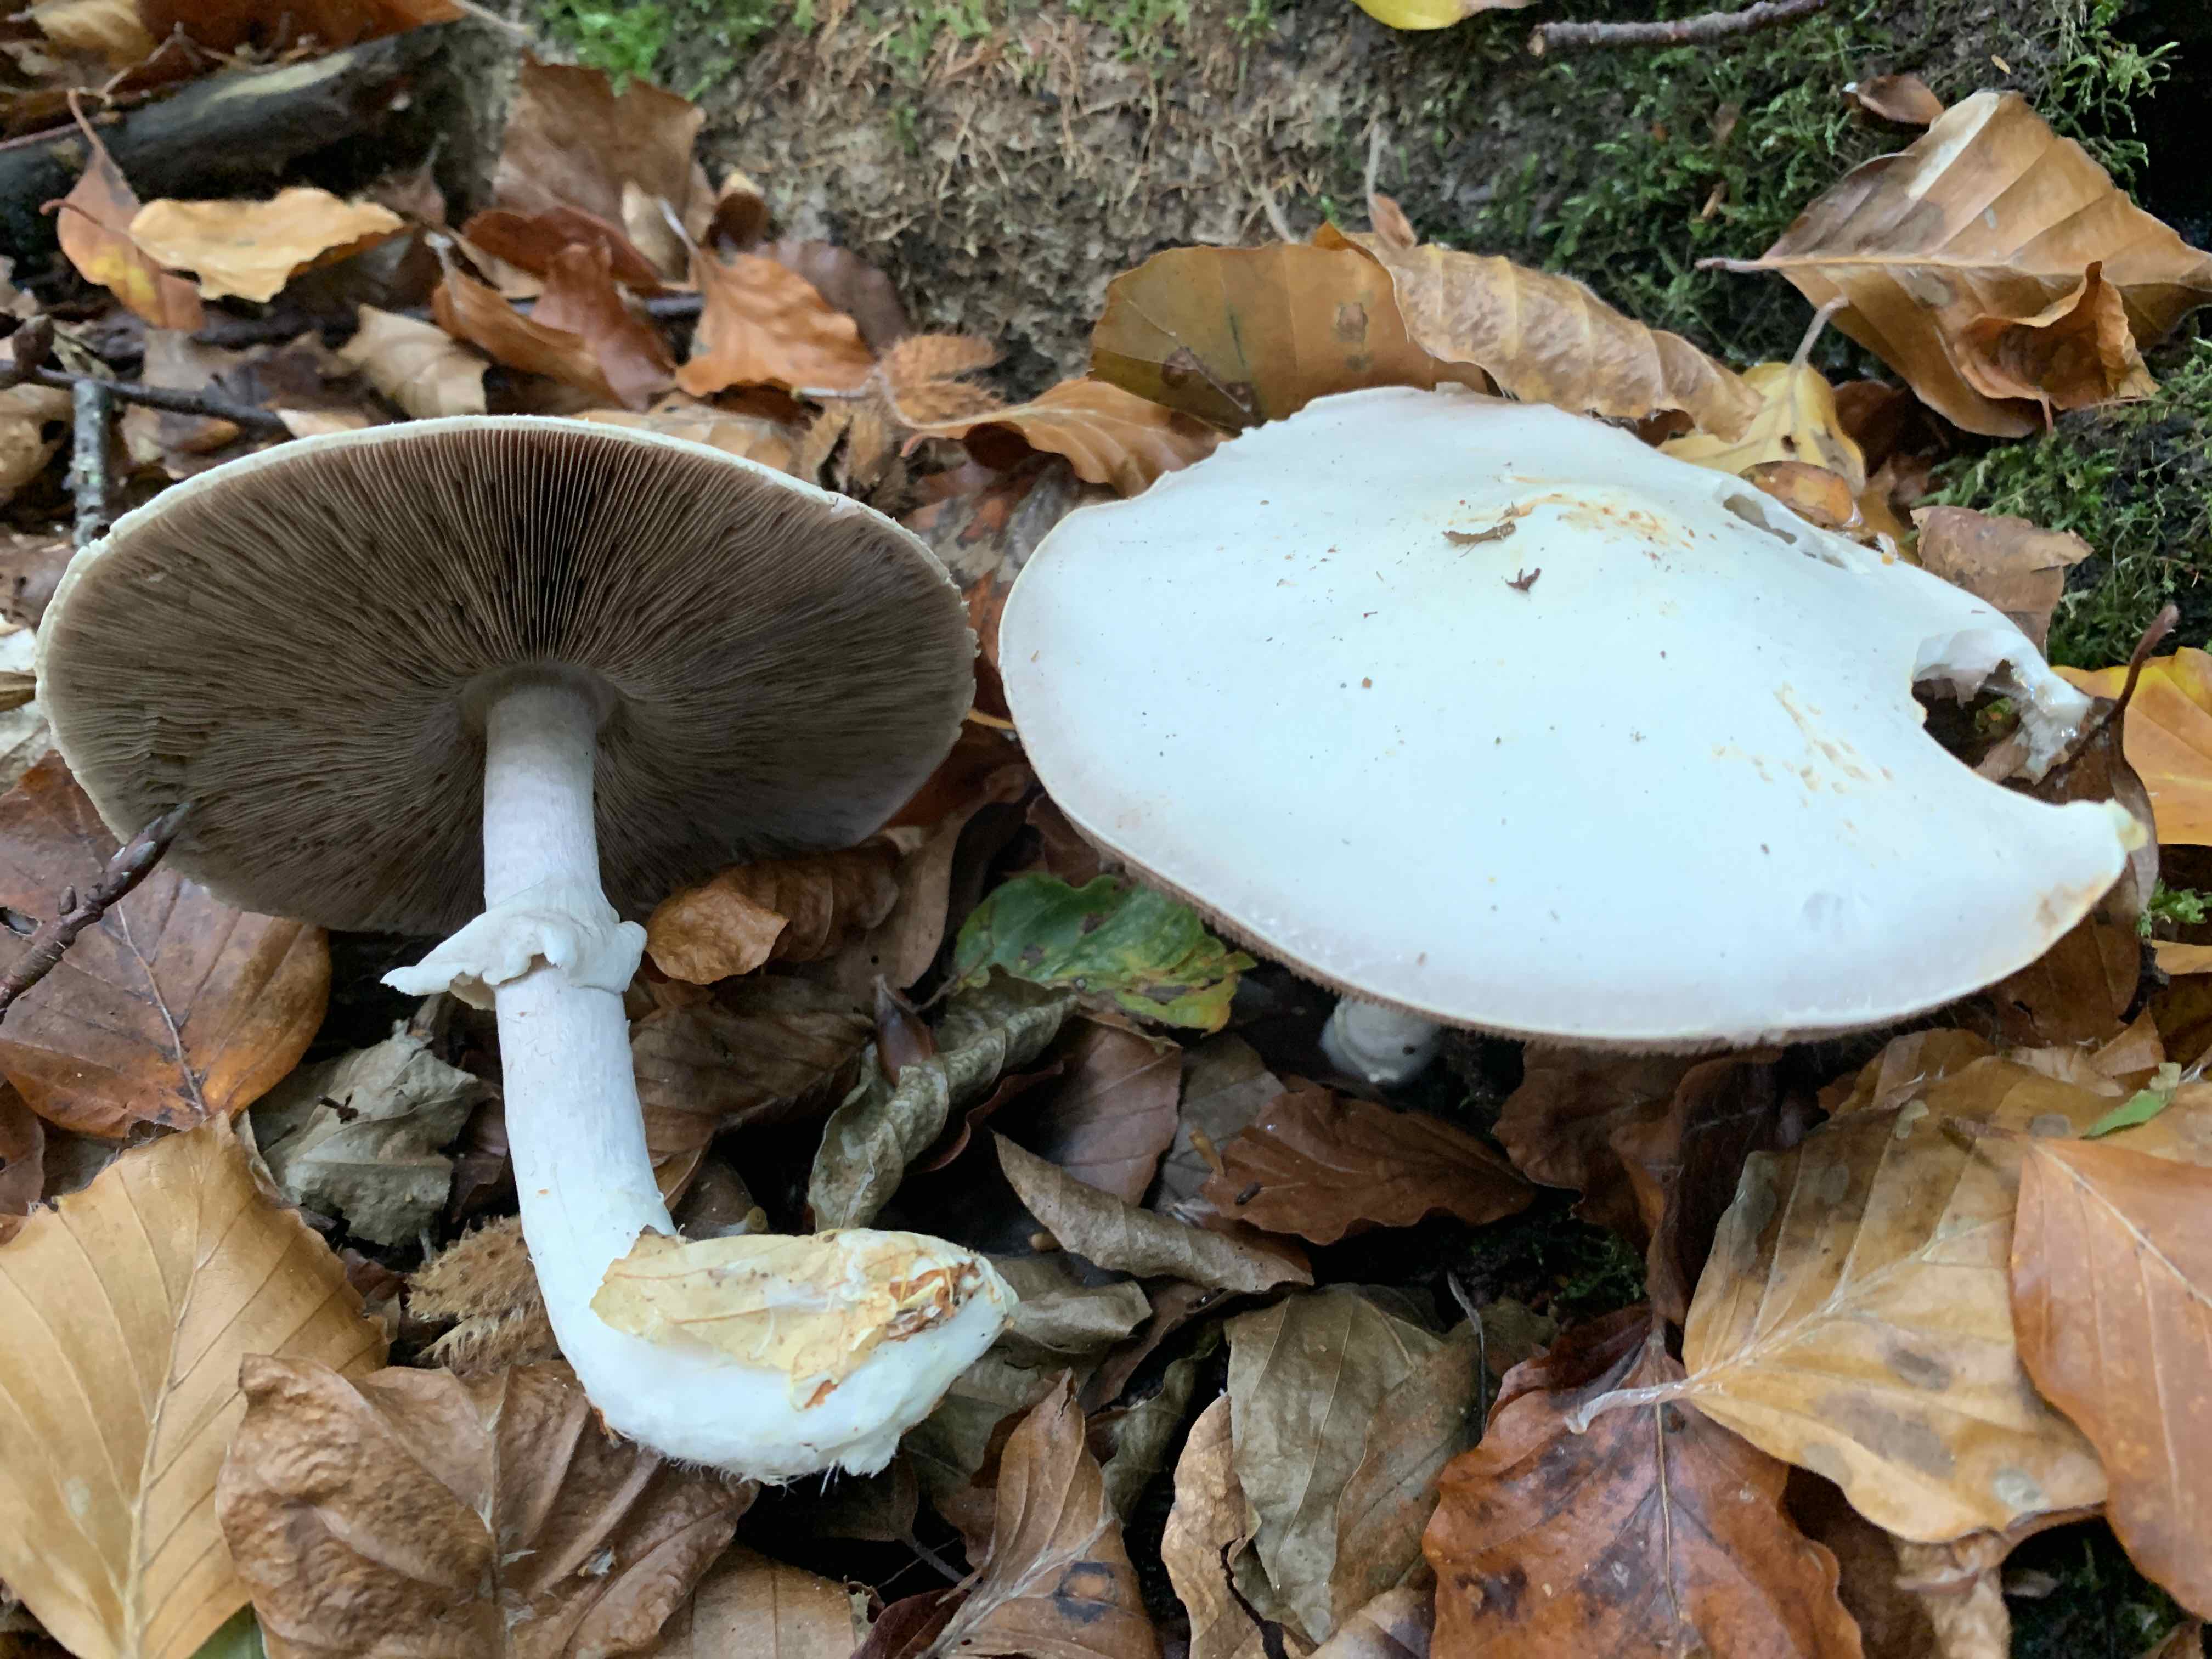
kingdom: Fungi
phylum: Basidiomycota
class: Agaricomycetes
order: Agaricales
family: Agaricaceae
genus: Agaricus
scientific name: Agaricus sylvicola
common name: gulhvid champignon
